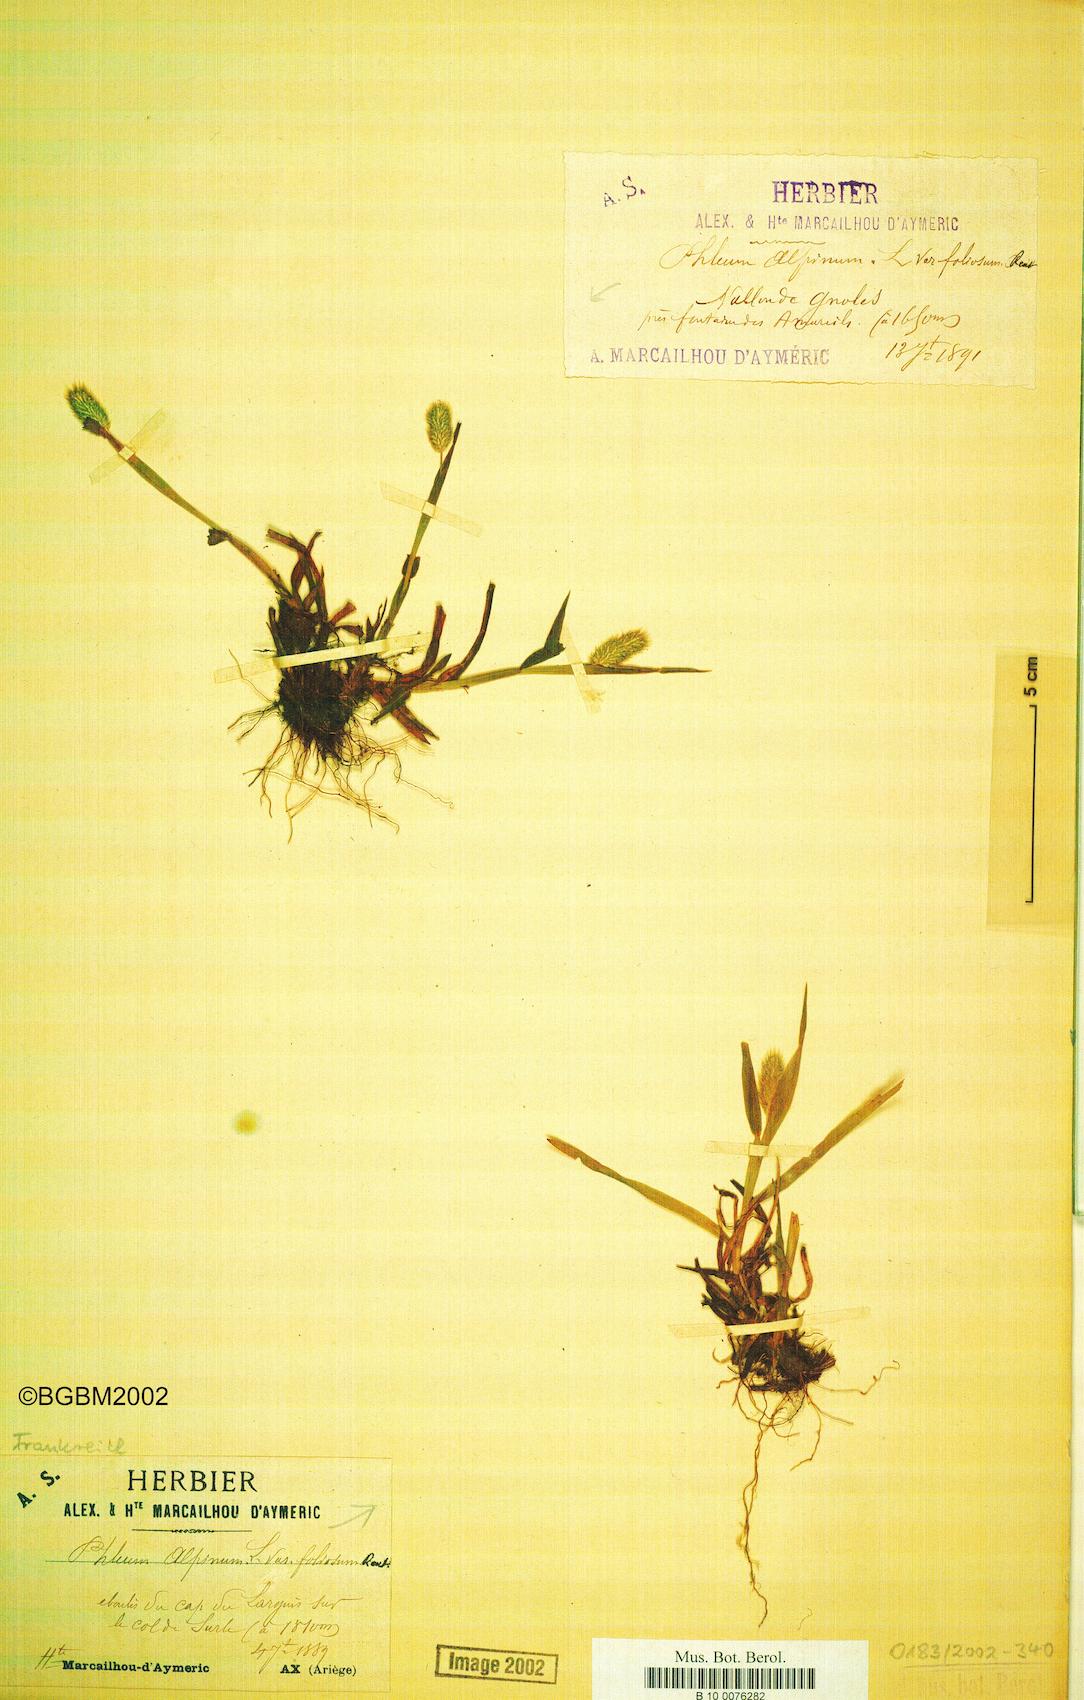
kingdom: Plantae
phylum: Tracheophyta
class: Liliopsida
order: Poales
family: Poaceae
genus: Phleum
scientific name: Phleum alpinum
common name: Alpine cat's-tail
